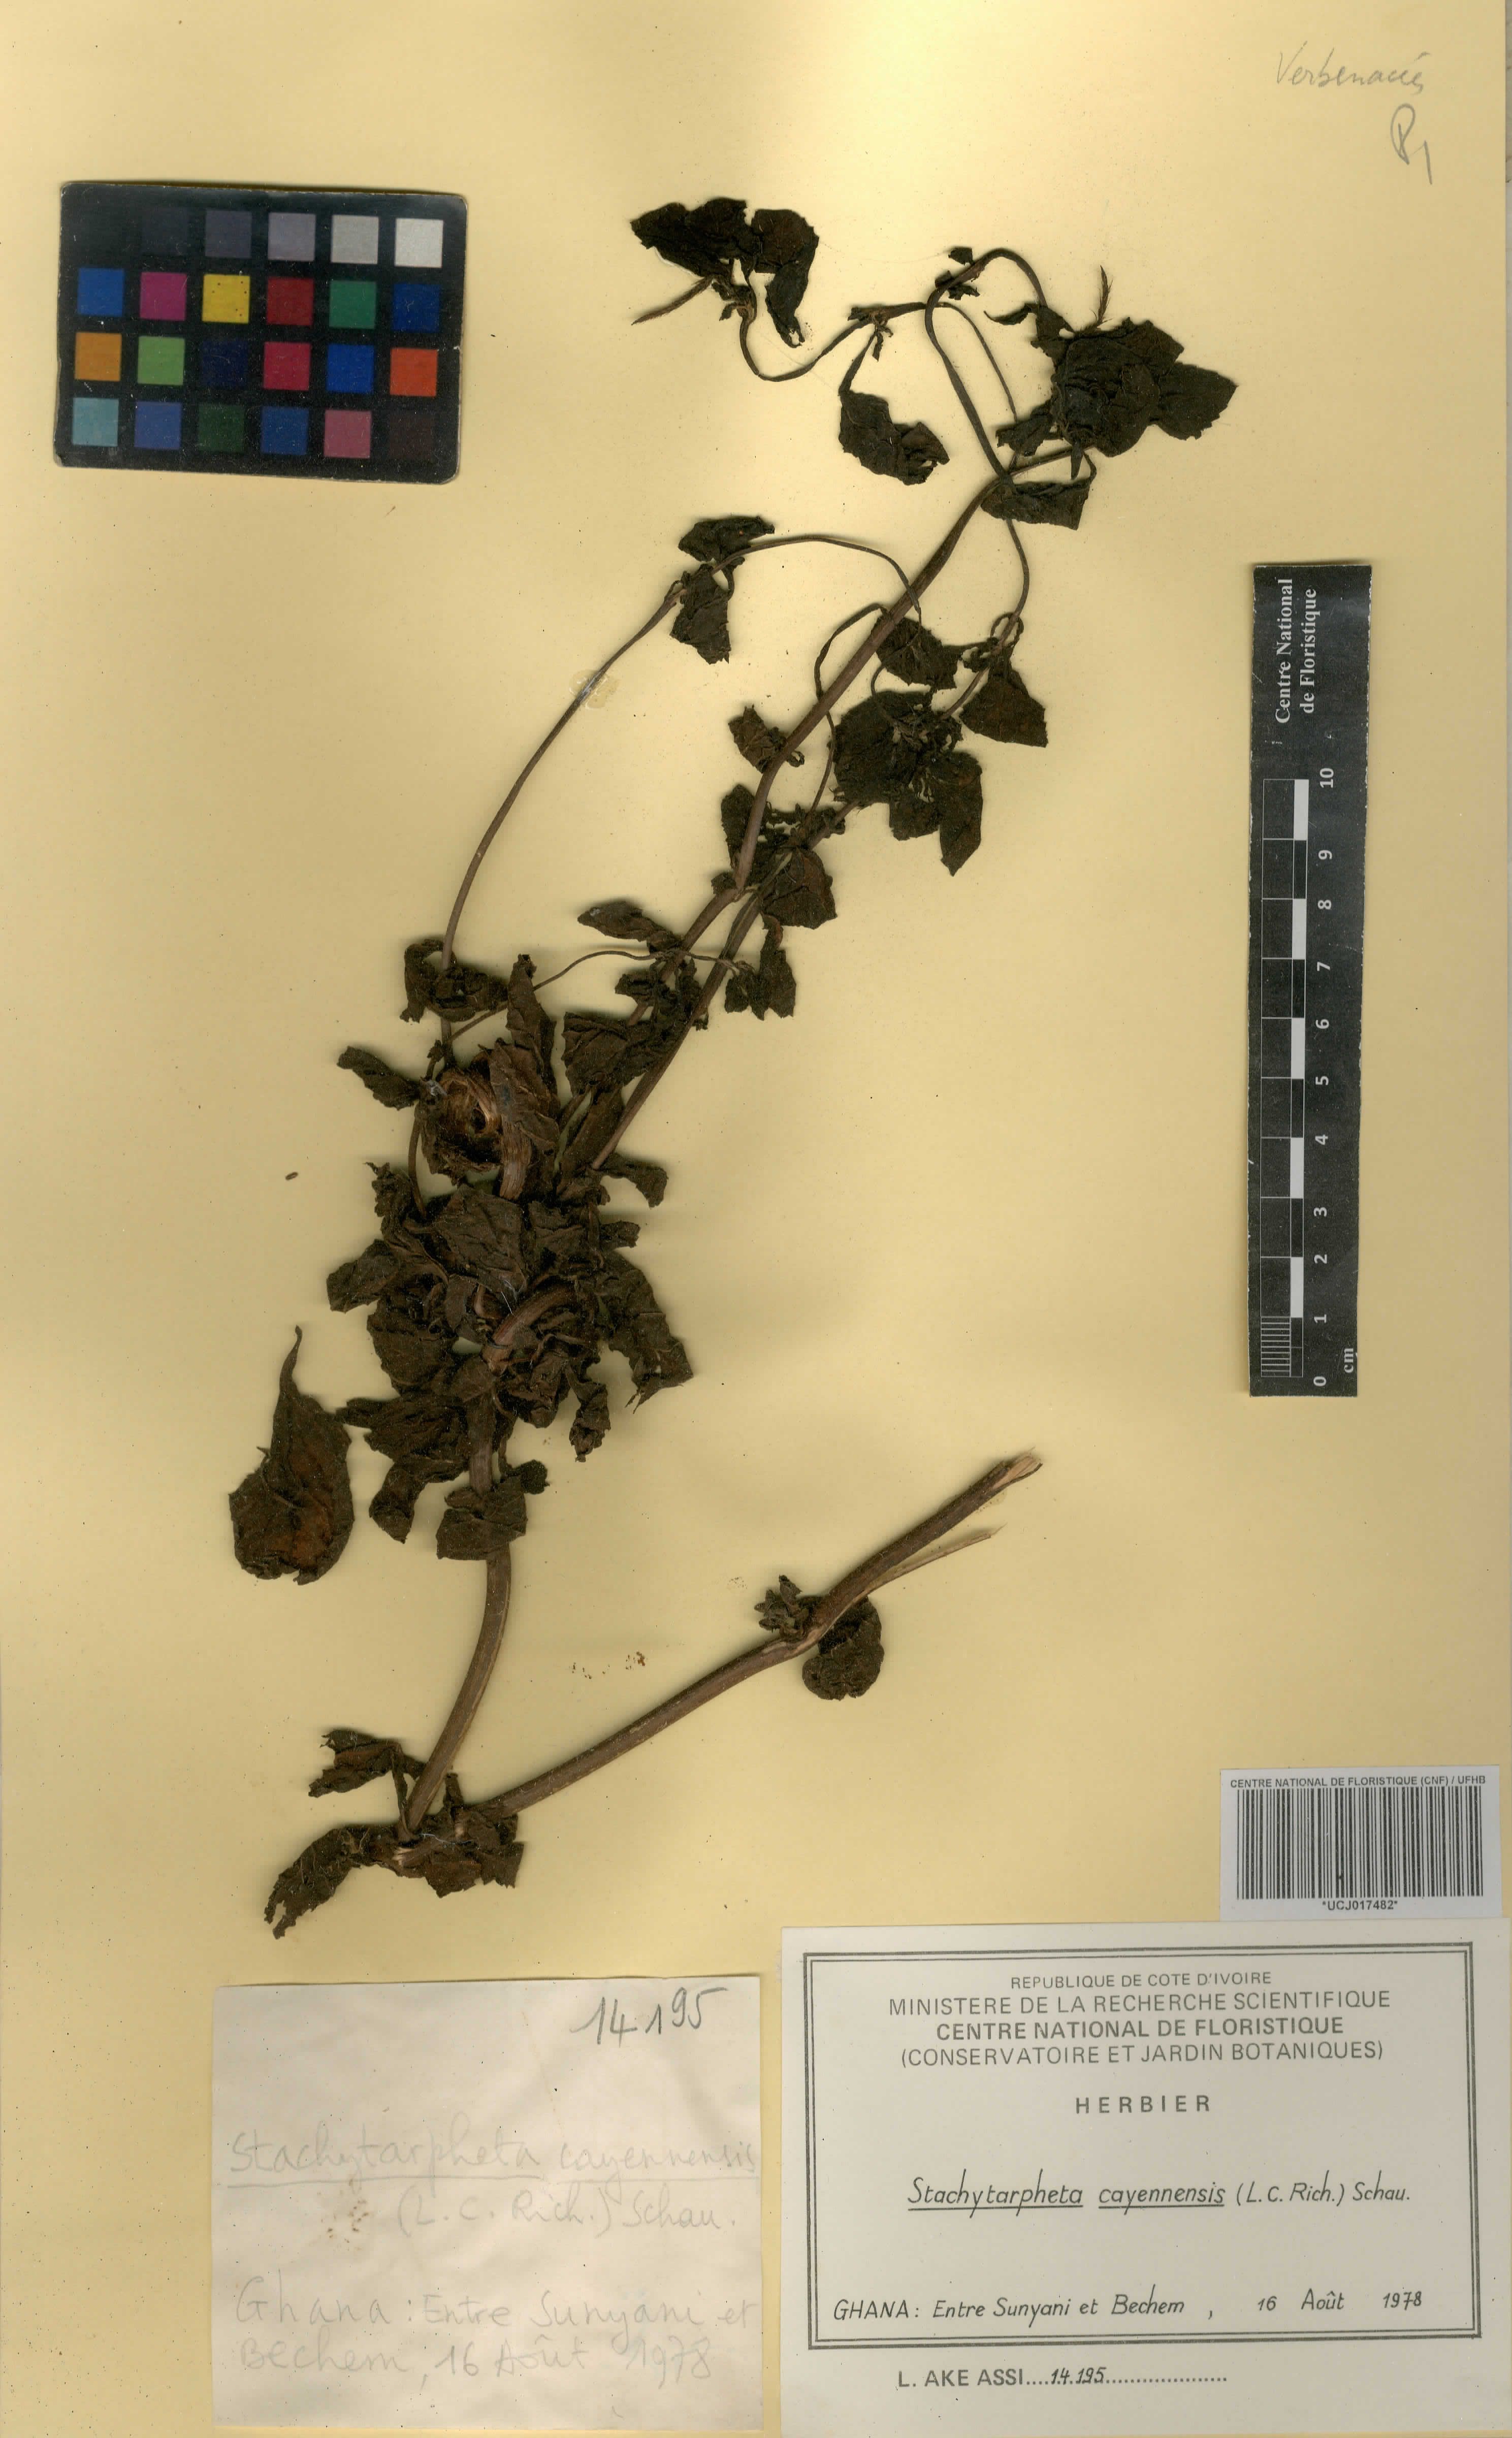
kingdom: Plantae
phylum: Tracheophyta
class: Magnoliopsida
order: Lamiales
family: Verbenaceae
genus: Stachytarpheta
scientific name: Stachytarpheta cayennensis
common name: Cayenne porterweed
